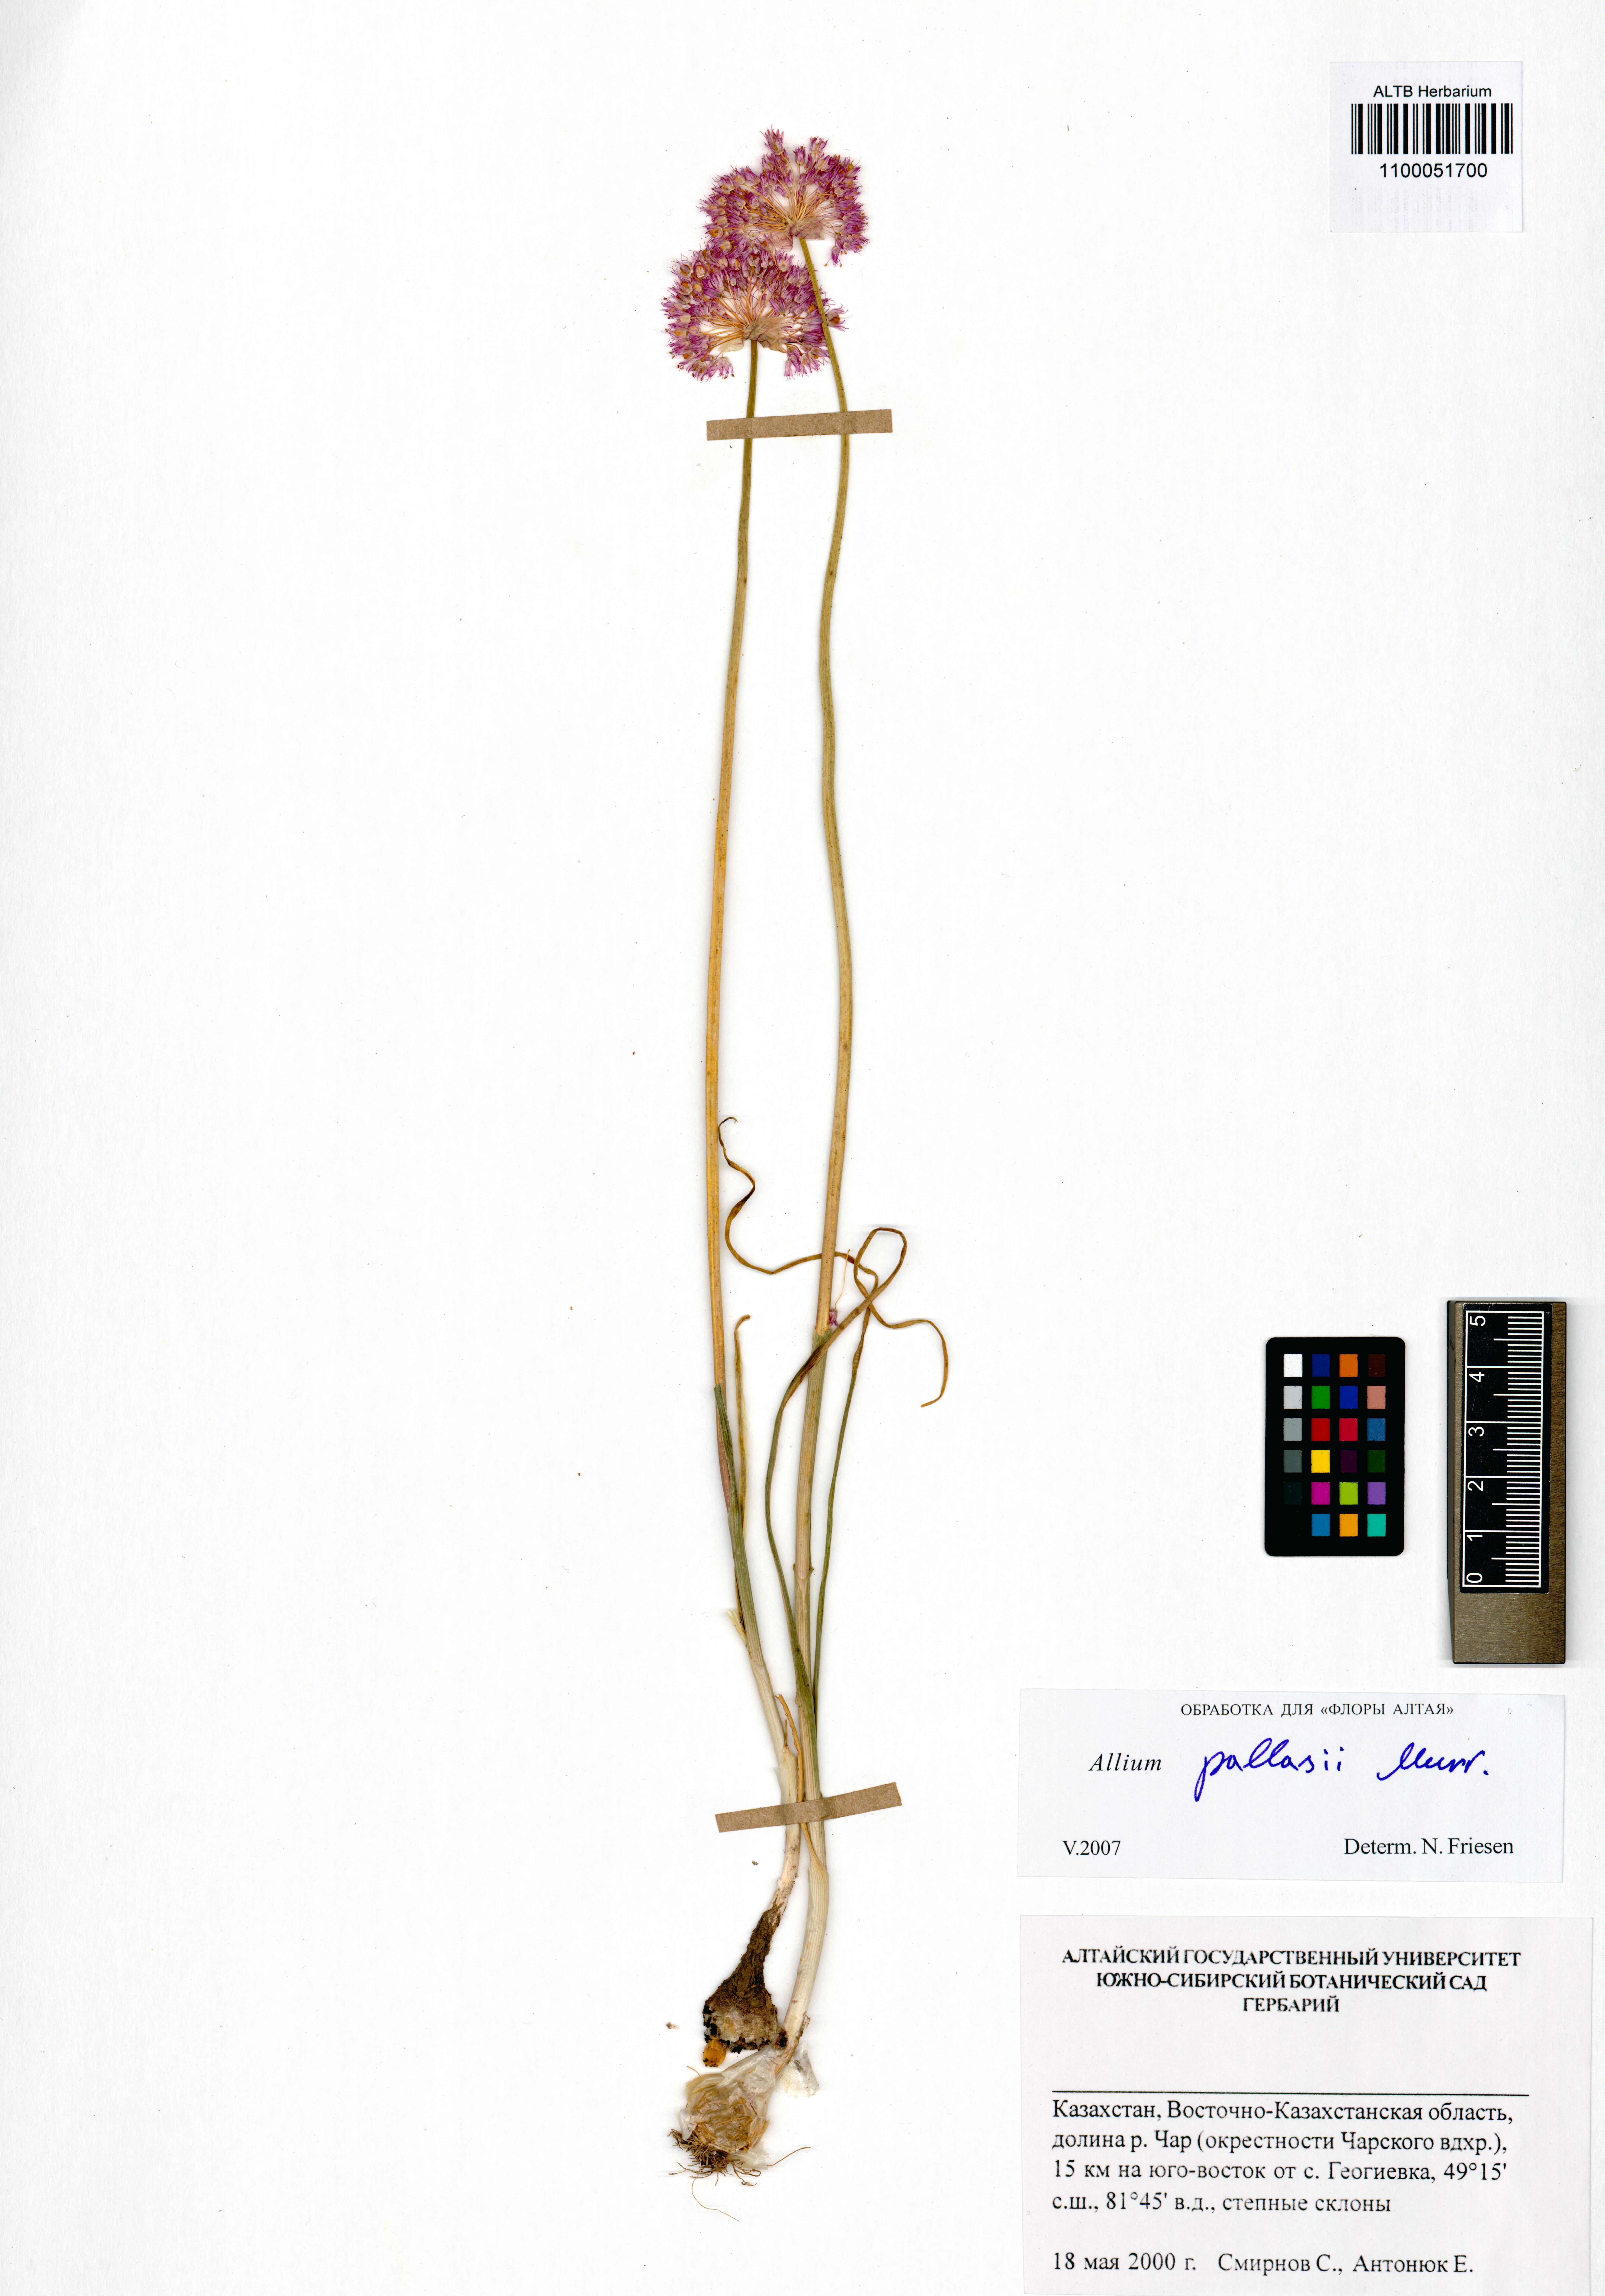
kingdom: Plantae
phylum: Tracheophyta
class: Liliopsida
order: Asparagales
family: Amaryllidaceae
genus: Allium
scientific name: Allium pallasii
